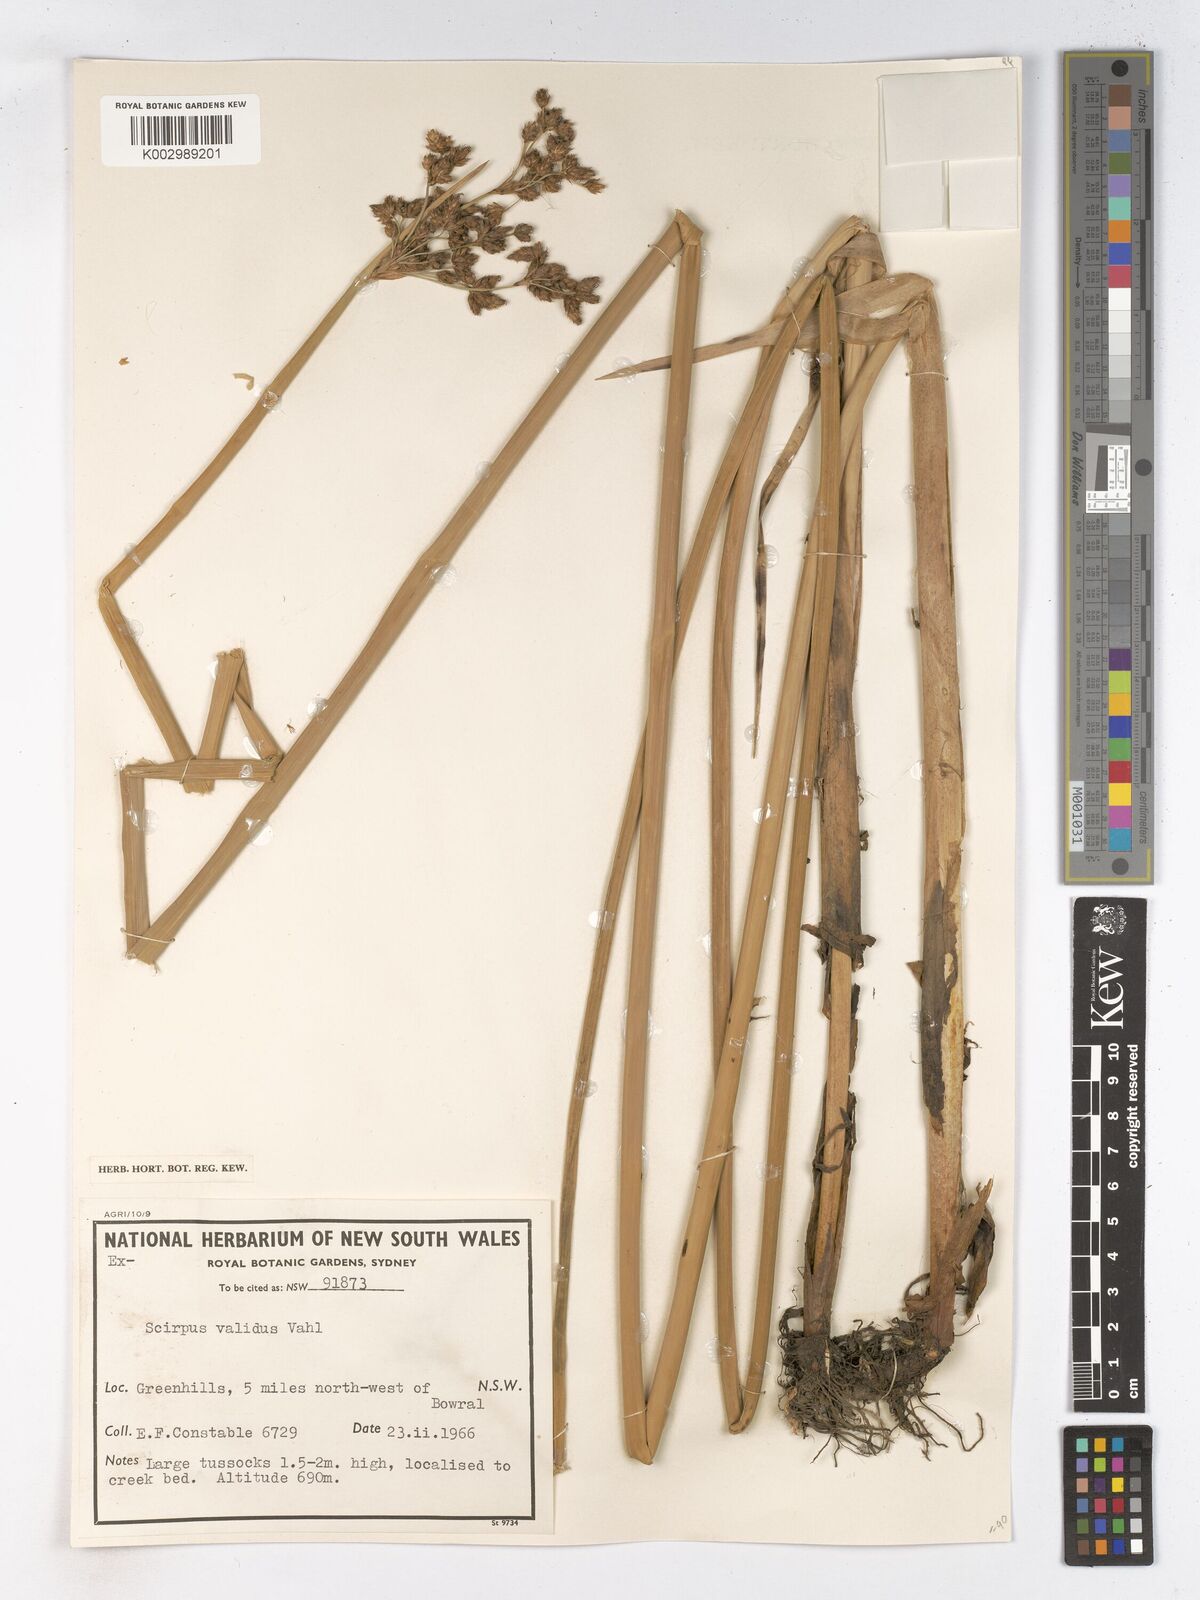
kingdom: Plantae
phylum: Tracheophyta
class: Liliopsida
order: Poales
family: Cyperaceae
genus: Schoenoplectus
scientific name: Schoenoplectus lacustris
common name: Common club-rush
